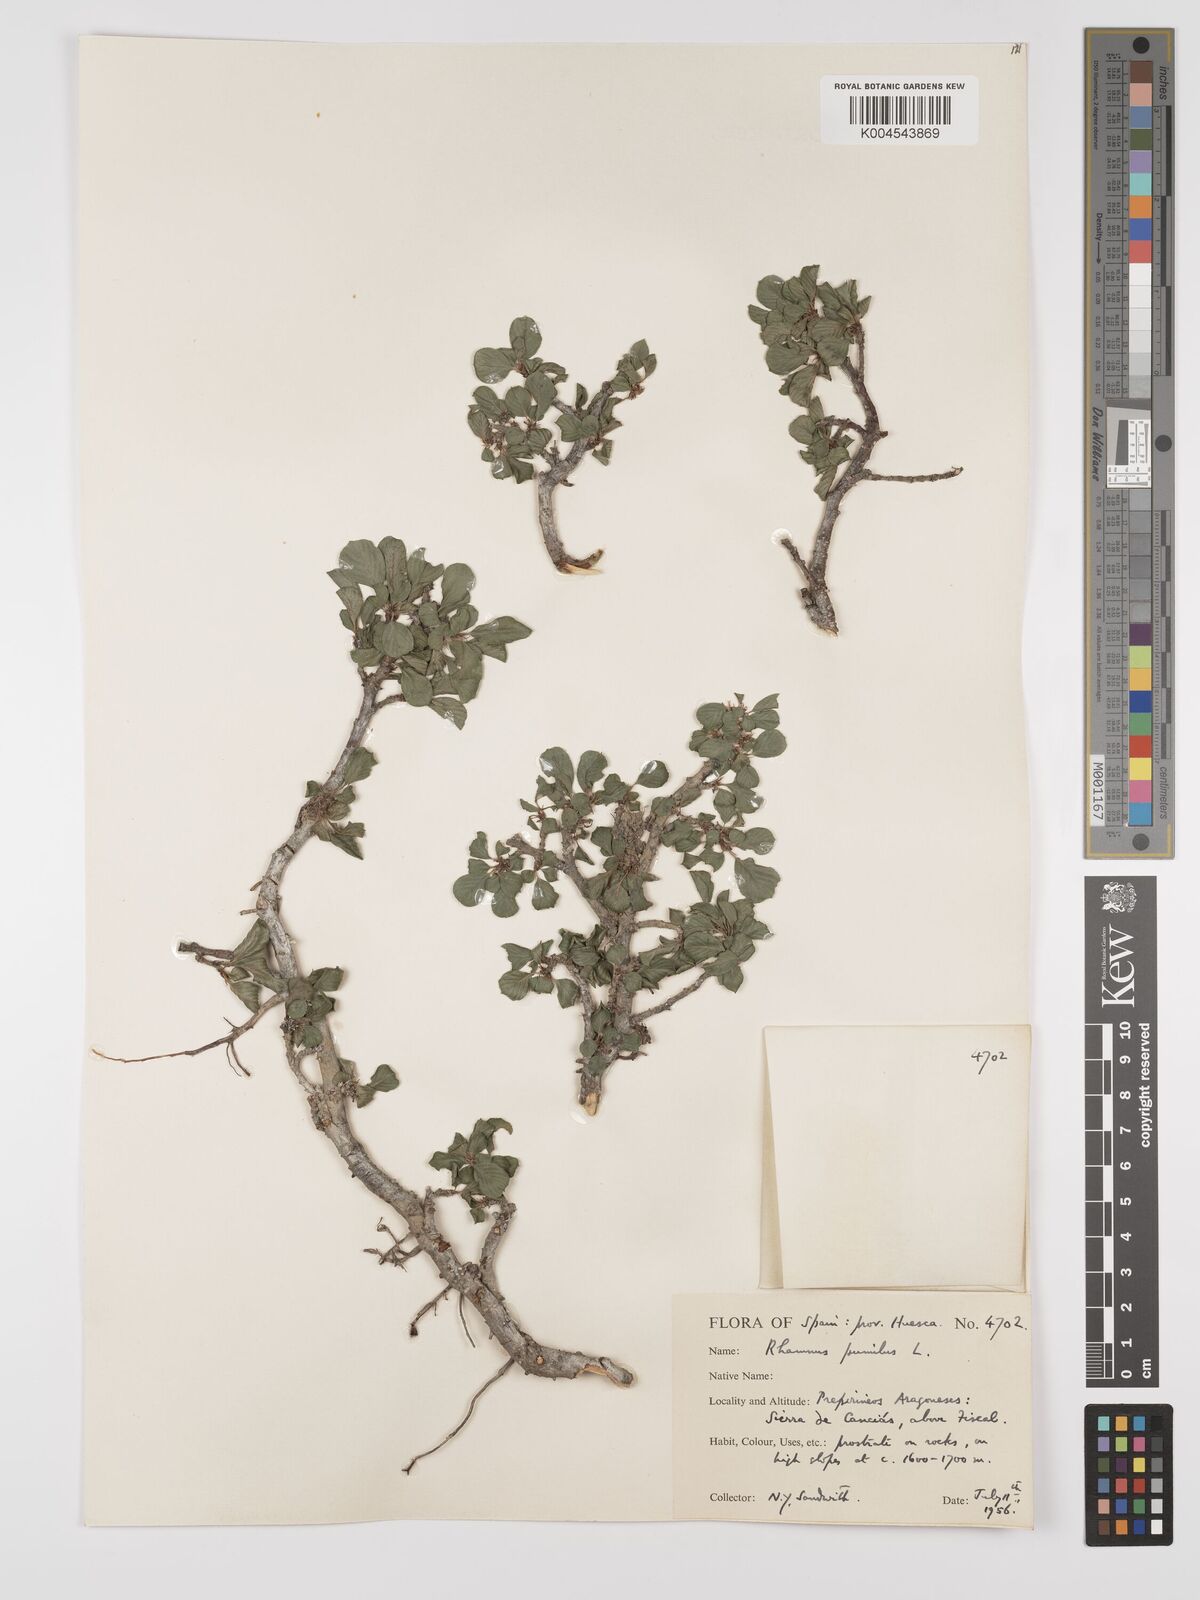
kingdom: Plantae
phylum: Tracheophyta
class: Magnoliopsida
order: Rosales
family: Rhamnaceae
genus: Rhamnus
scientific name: Rhamnus
